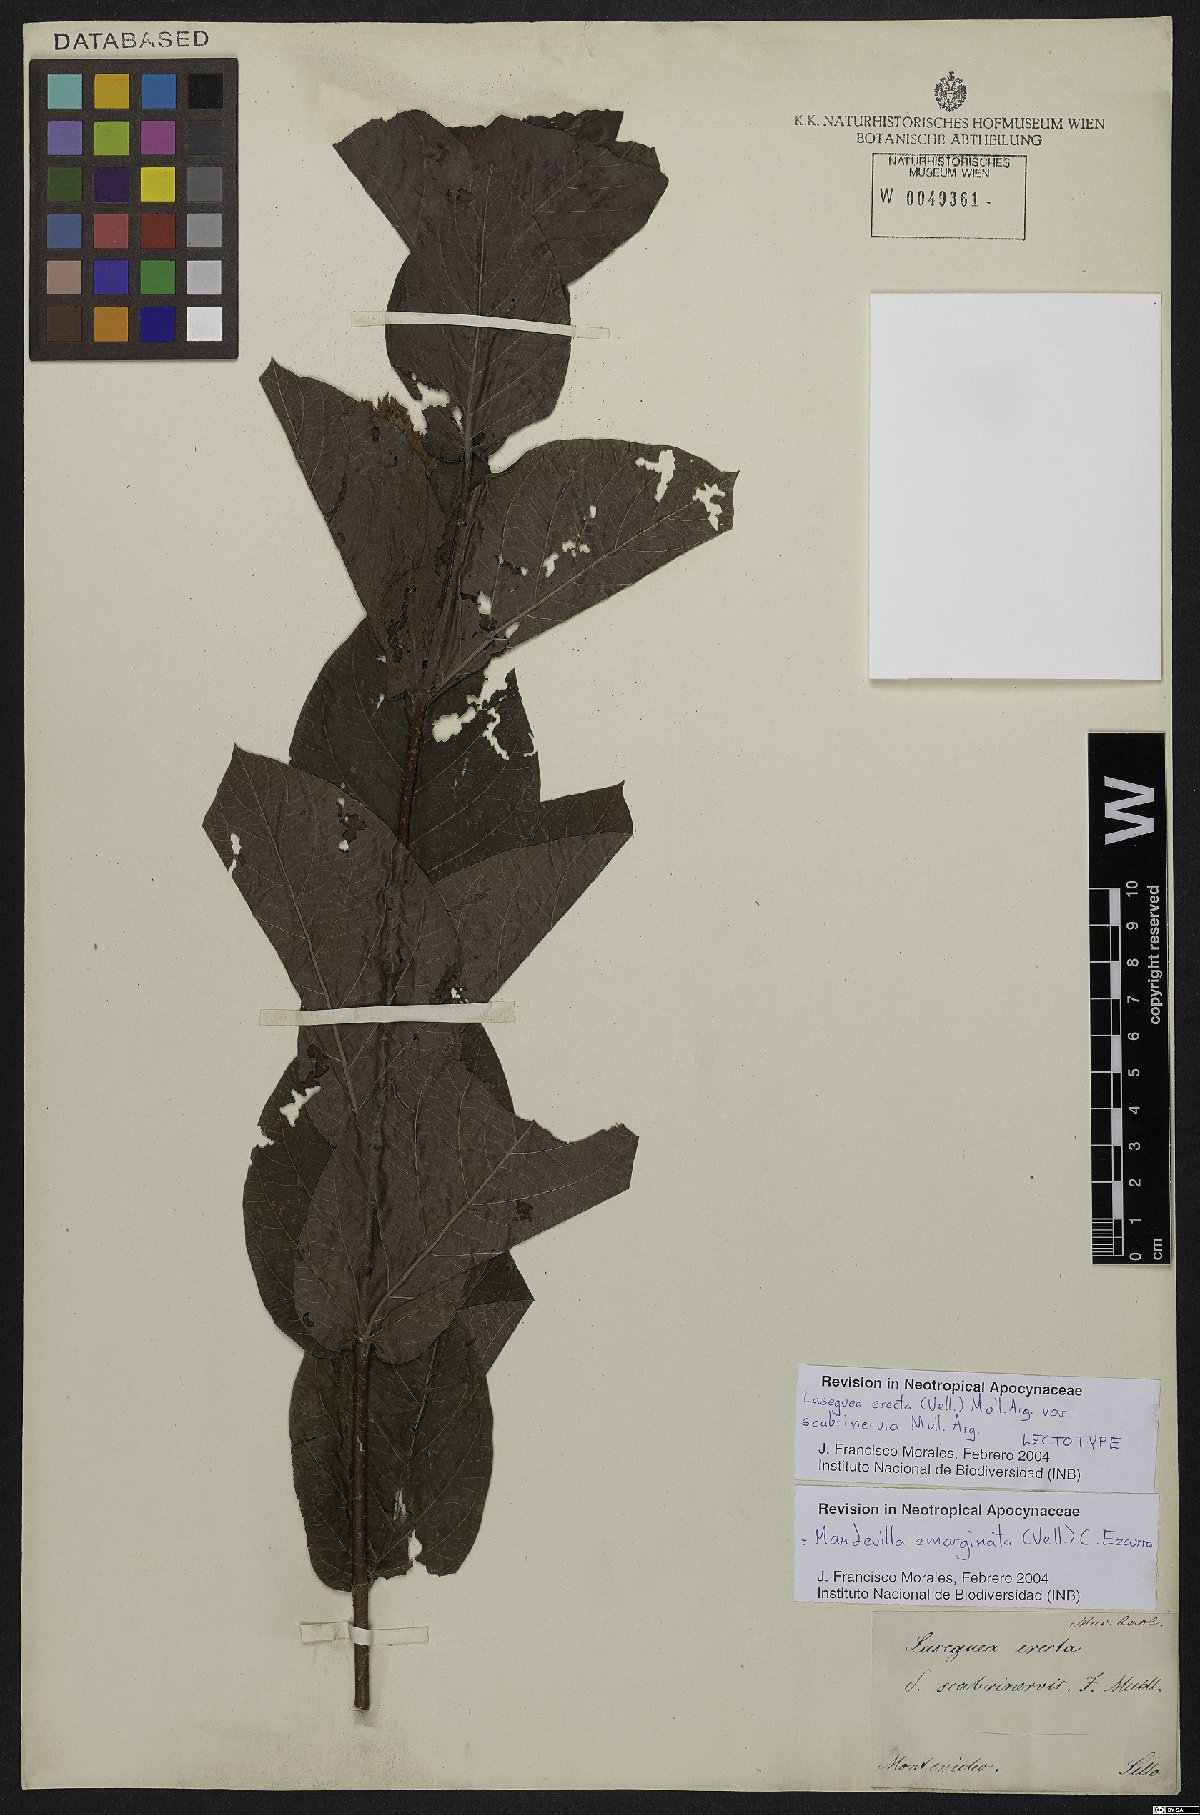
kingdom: Plantae
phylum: Tracheophyta
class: Magnoliopsida
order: Gentianales
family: Apocynaceae
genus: Mandevilla
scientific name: Mandevilla emarginata
